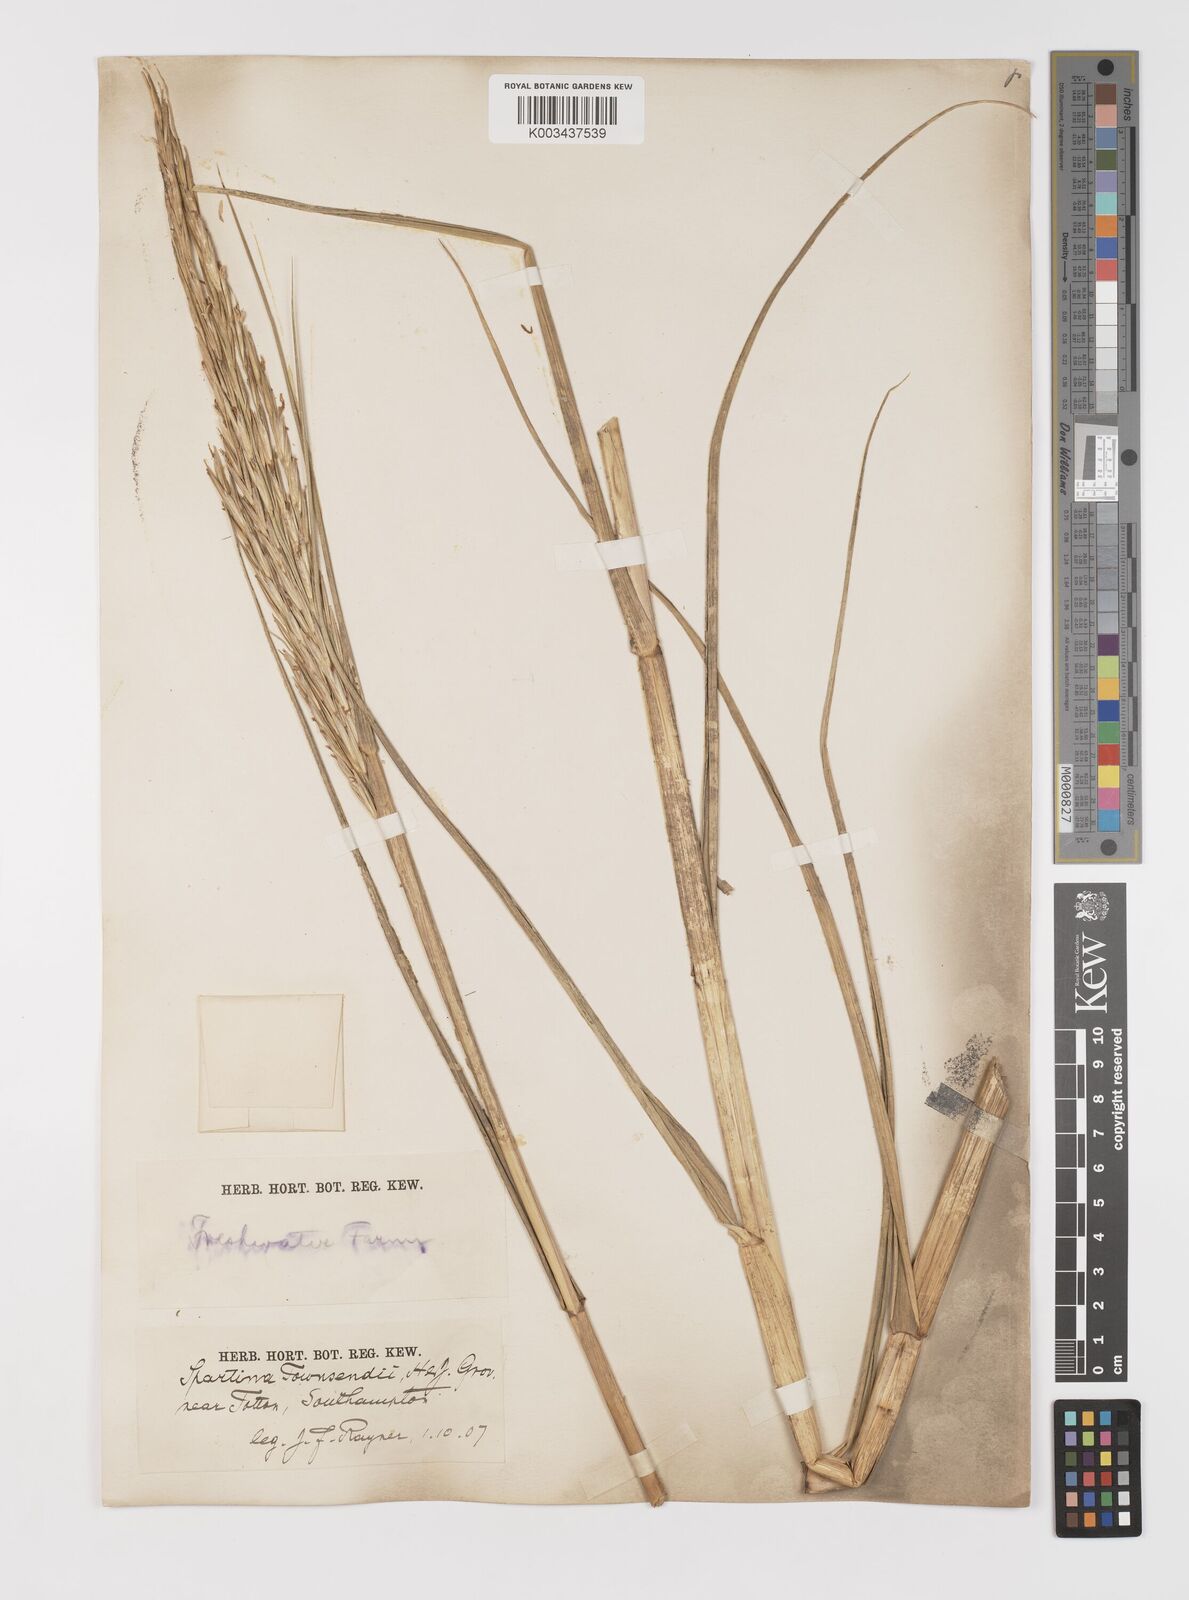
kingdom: Plantae
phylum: Tracheophyta
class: Liliopsida
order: Poales
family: Poaceae
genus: Sporobolus
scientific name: Sporobolus anglicus
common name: English cordgrass
